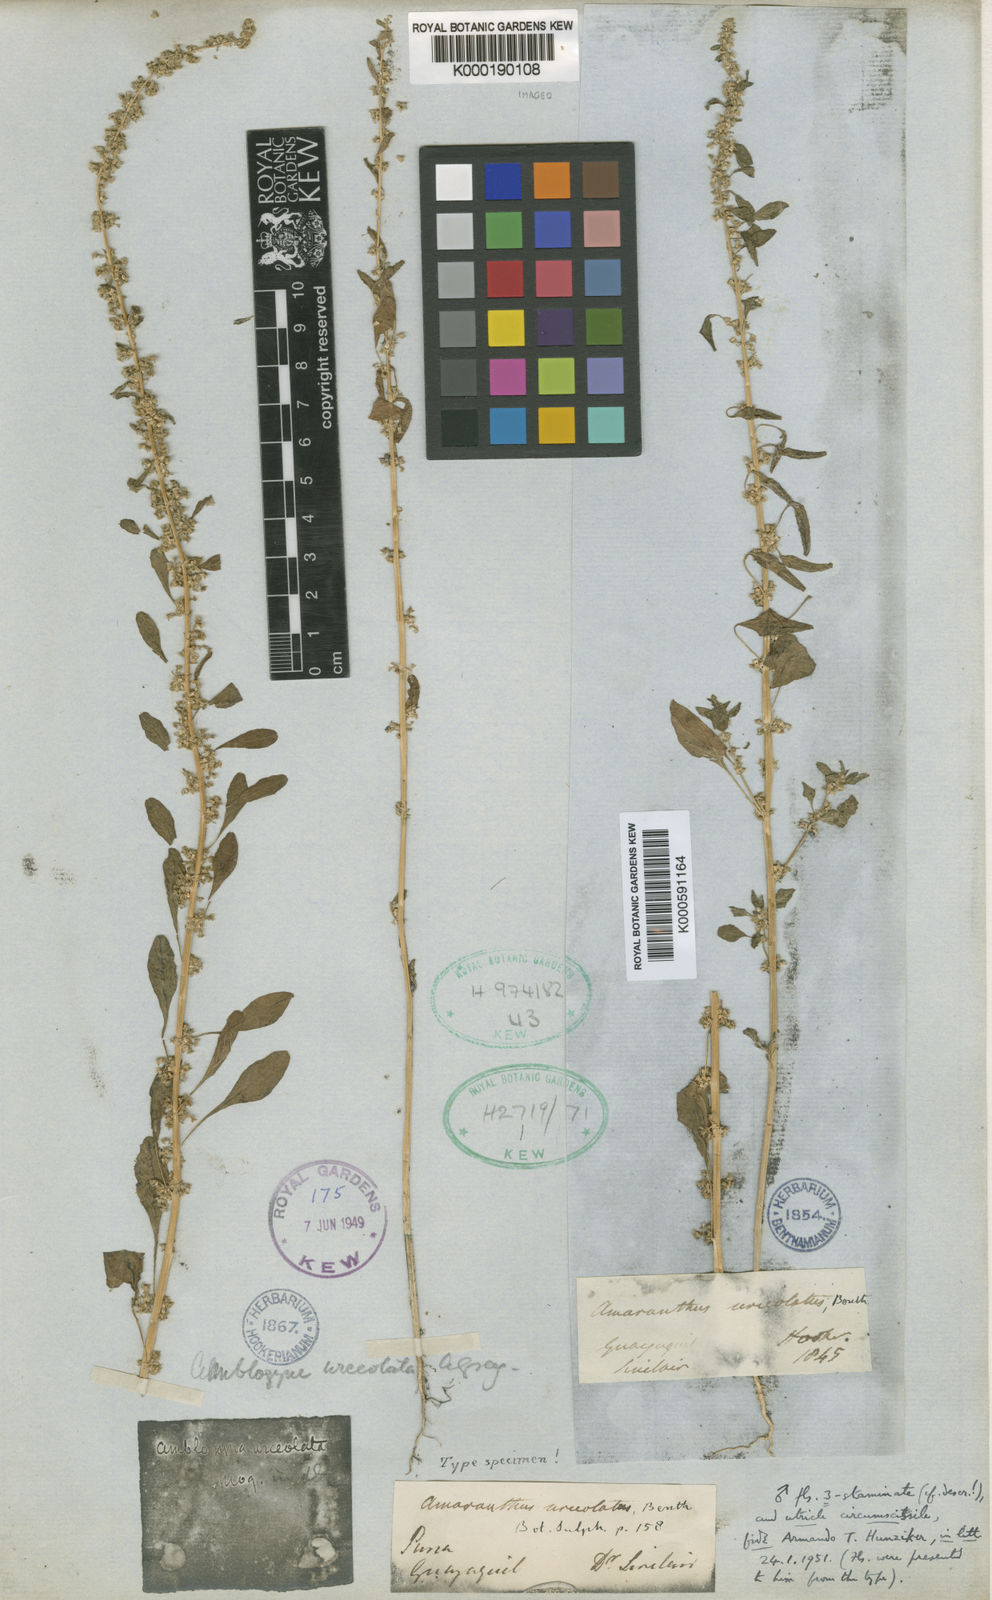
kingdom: Plantae
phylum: Tracheophyta
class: Magnoliopsida
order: Caryophyllales
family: Amaranthaceae
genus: Amaranthus
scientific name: Amaranthus urceolatus
